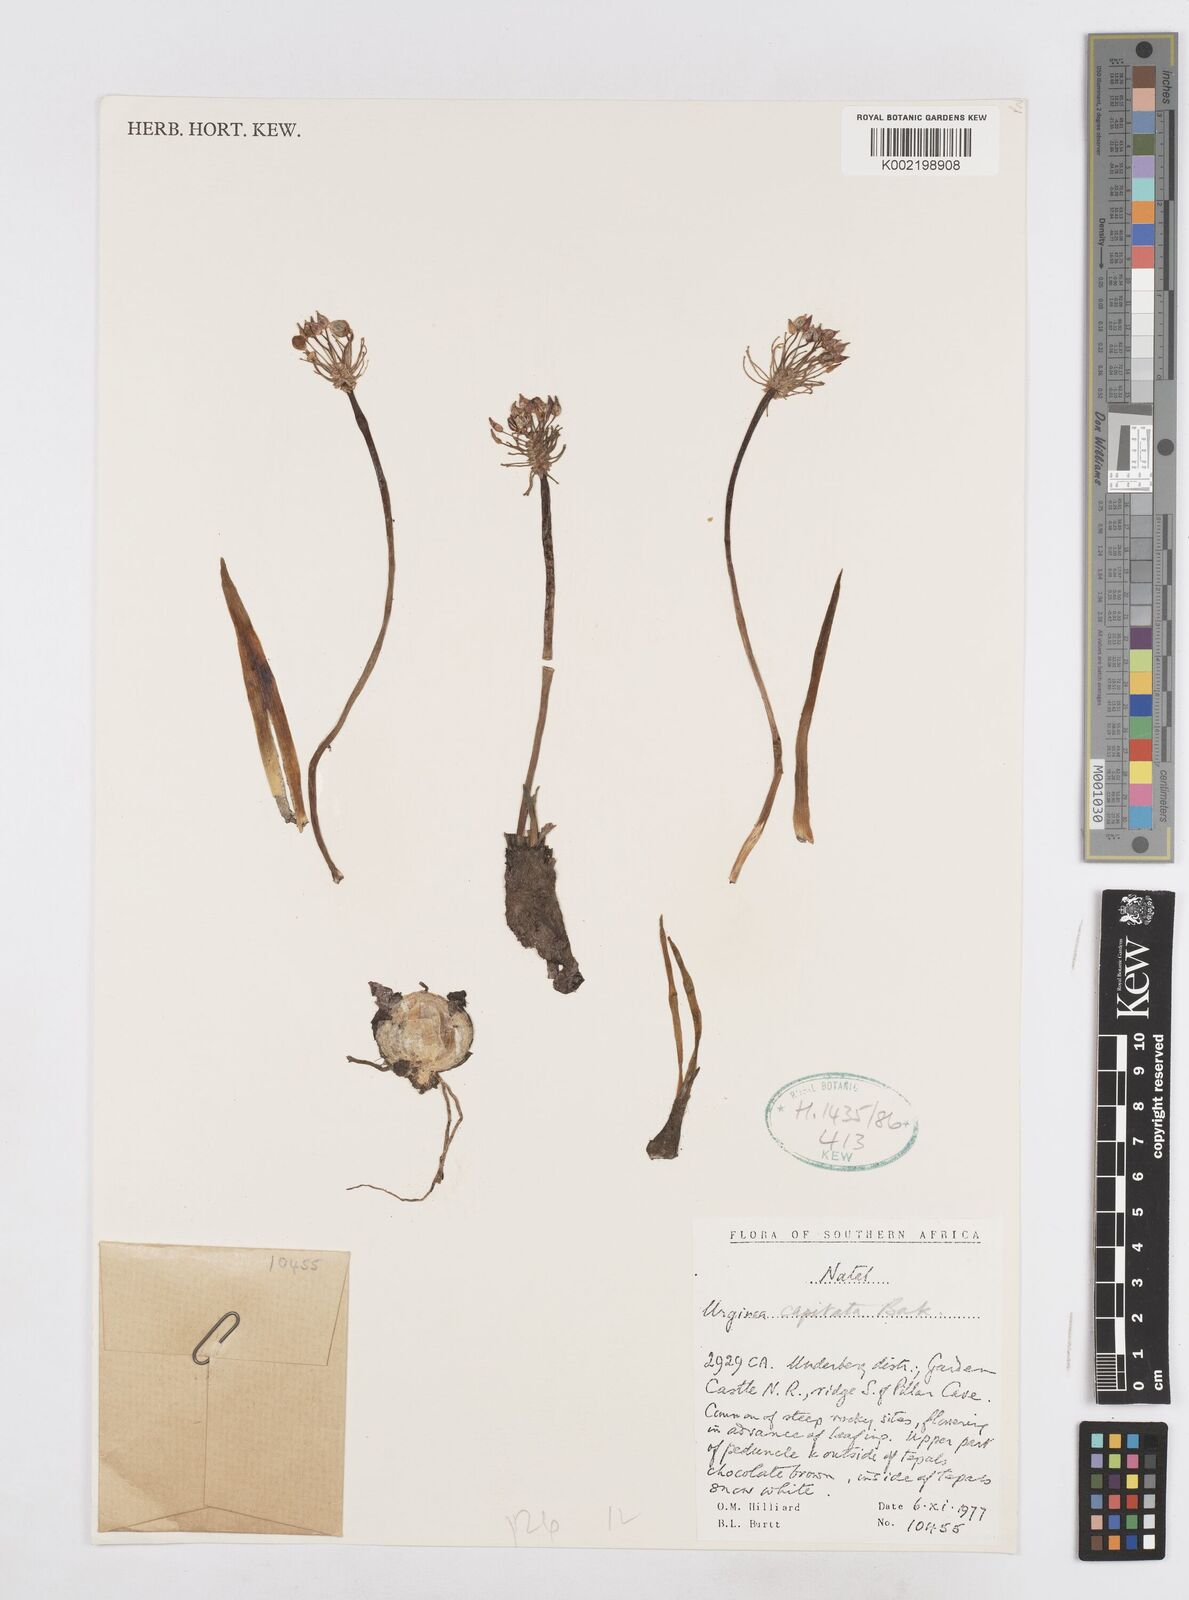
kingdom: Plantae
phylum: Tracheophyta
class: Liliopsida
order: Asparagales
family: Asparagaceae
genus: Drimia
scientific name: Drimia sphaerocephala
